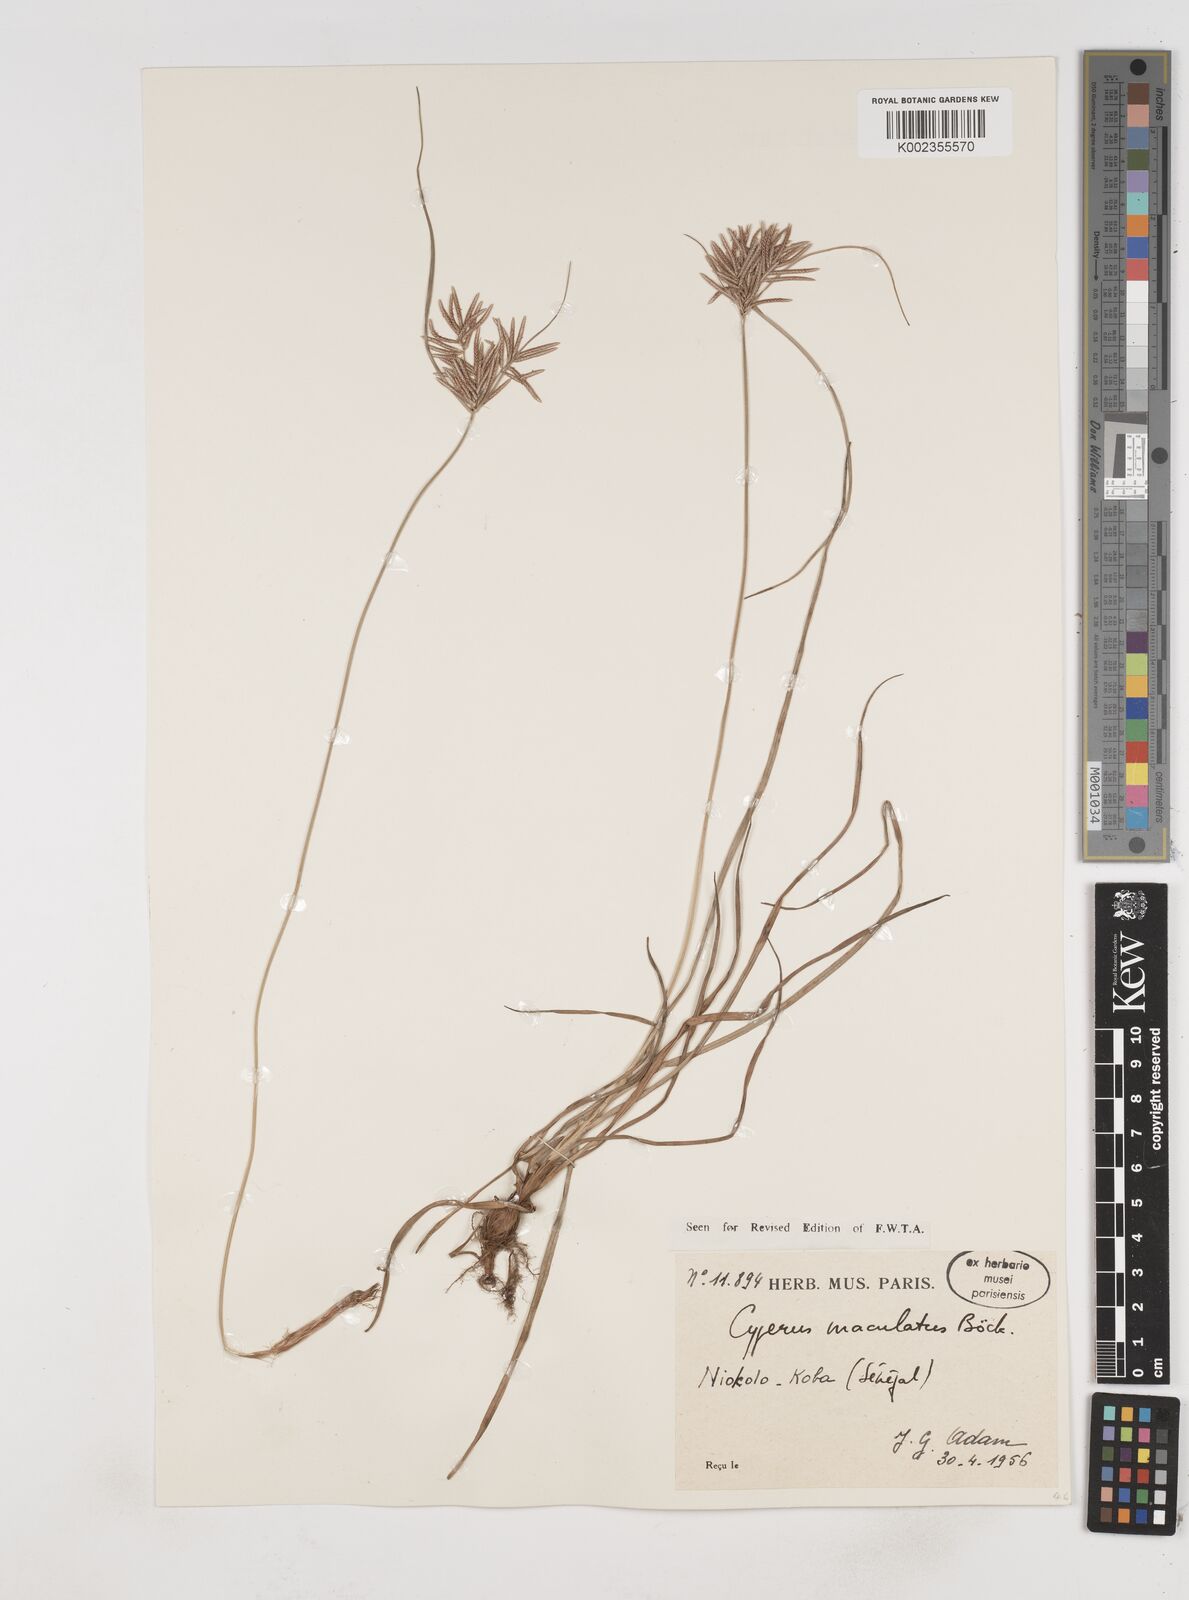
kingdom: Plantae
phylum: Tracheophyta
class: Liliopsida
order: Poales
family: Cyperaceae
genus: Cyperus
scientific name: Cyperus maculatus
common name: Maculated sedge
